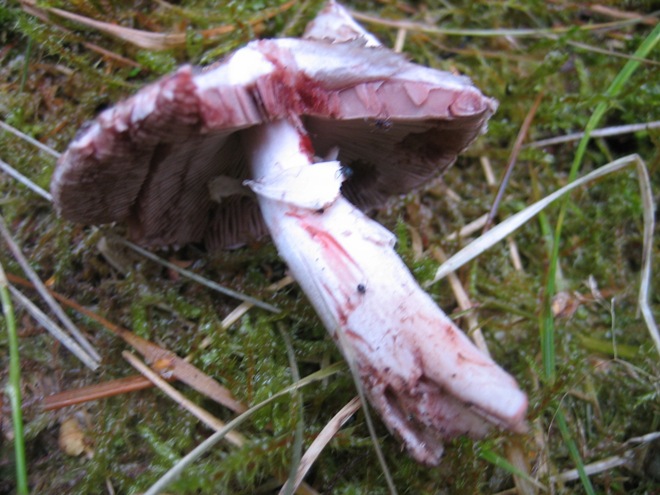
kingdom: Fungi
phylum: Basidiomycota
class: Agaricomycetes
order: Agaricales
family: Agaricaceae
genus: Agaricus
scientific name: Agaricus langei
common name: stor blod-champignon
